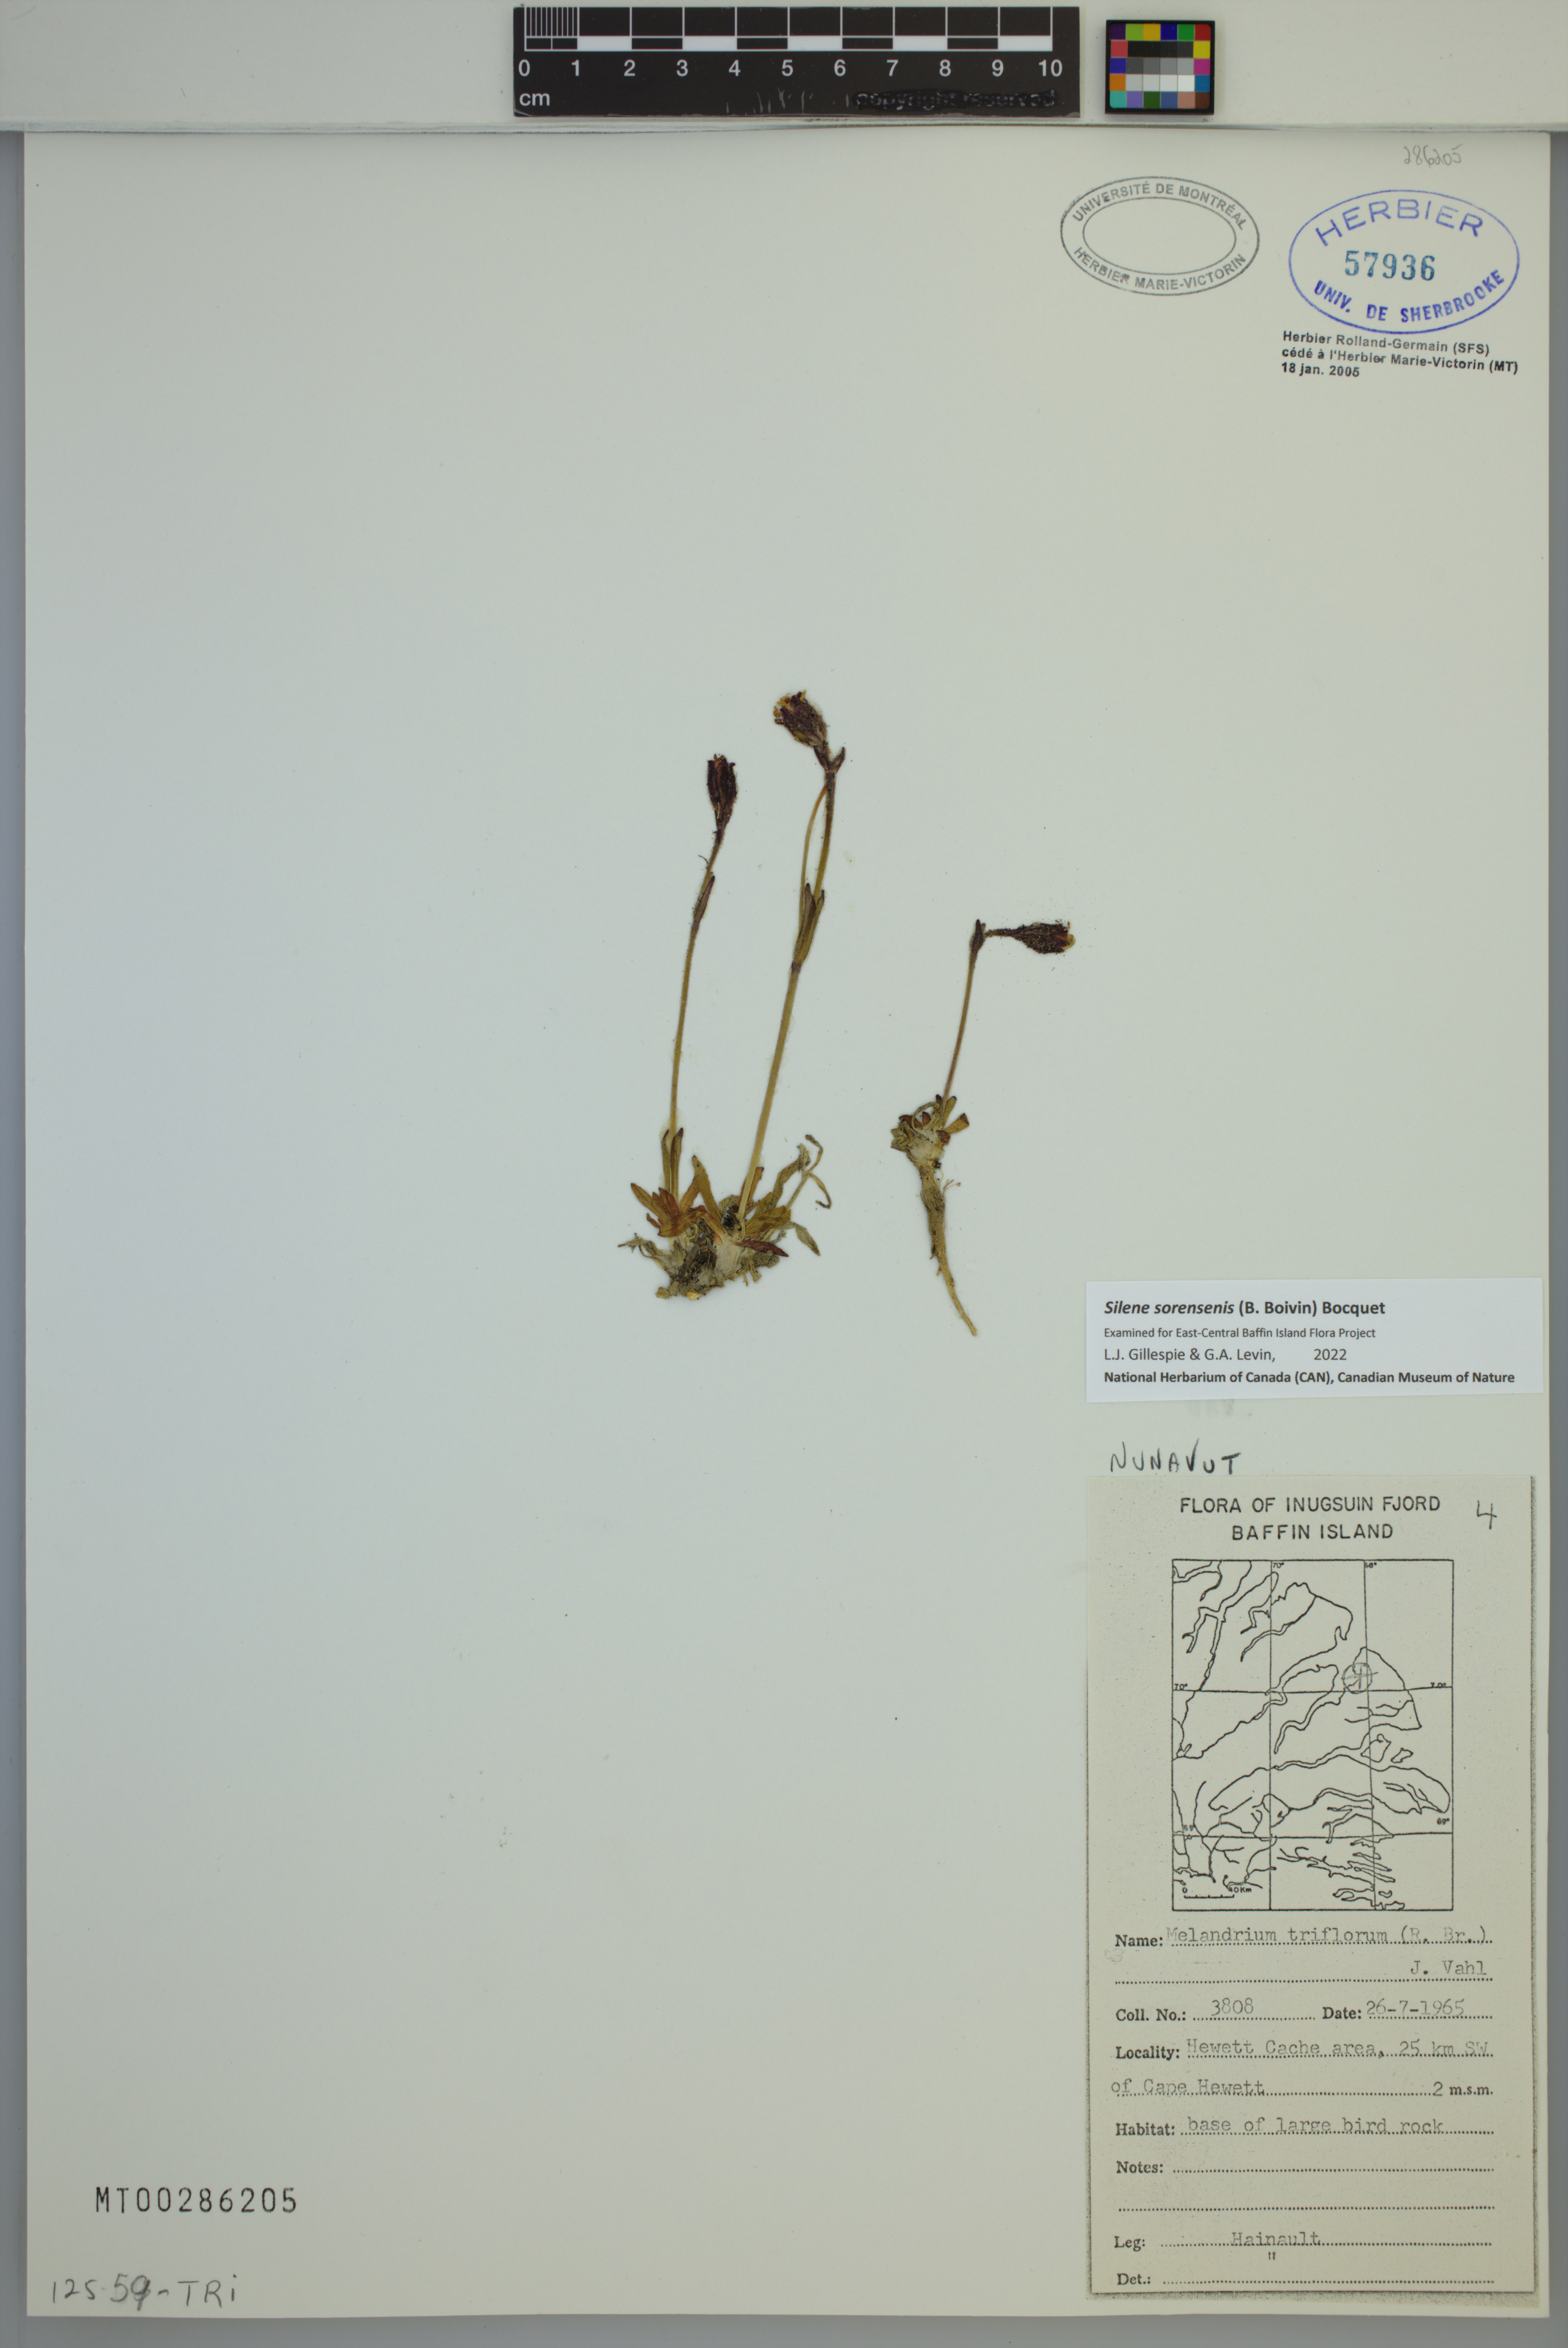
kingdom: Plantae
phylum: Tracheophyta
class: Magnoliopsida
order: Caryophyllales
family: Caryophyllaceae
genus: Silene
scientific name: Silene sorensenis
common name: Sorensen's campion
